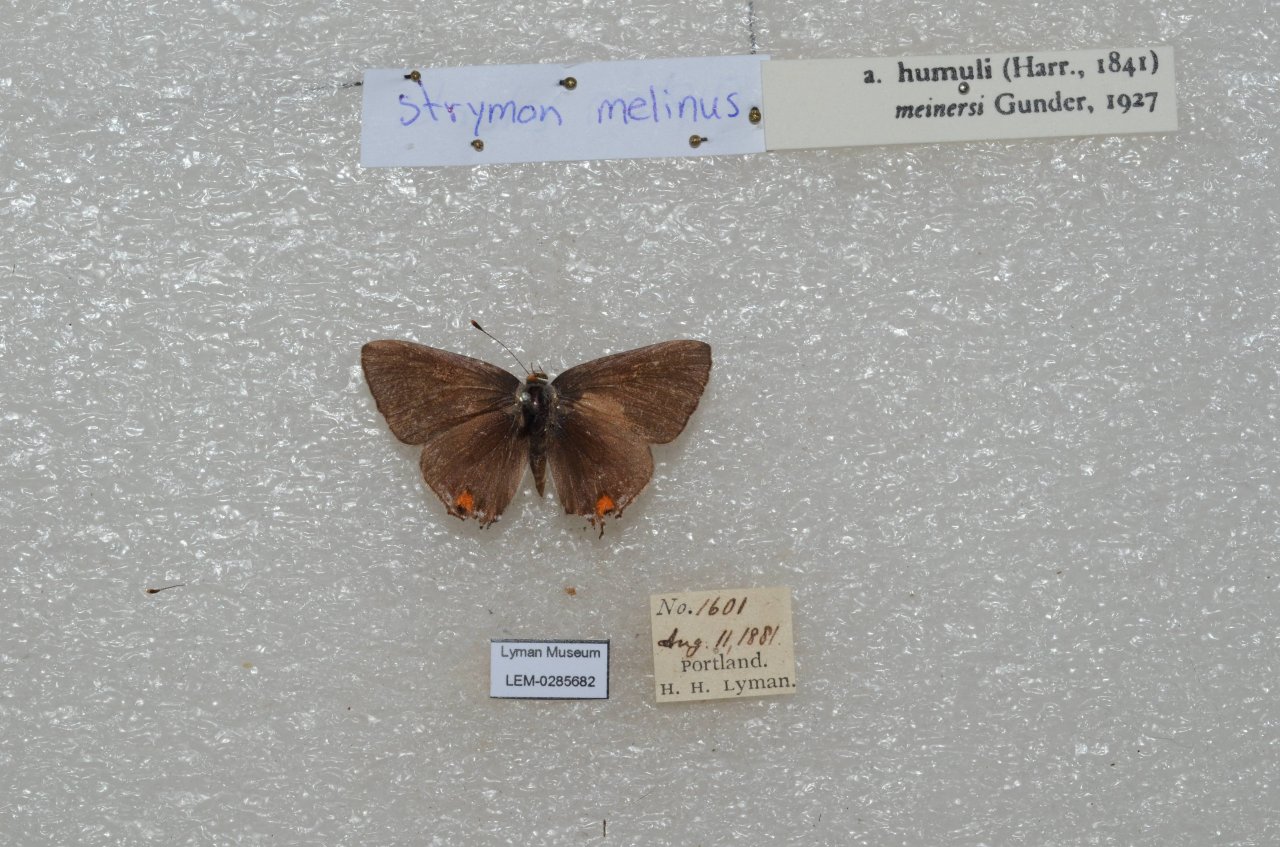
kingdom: Animalia
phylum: Arthropoda
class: Insecta
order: Lepidoptera
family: Lycaenidae
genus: Strymon
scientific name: Strymon melinus
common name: Gray Hairstreak
